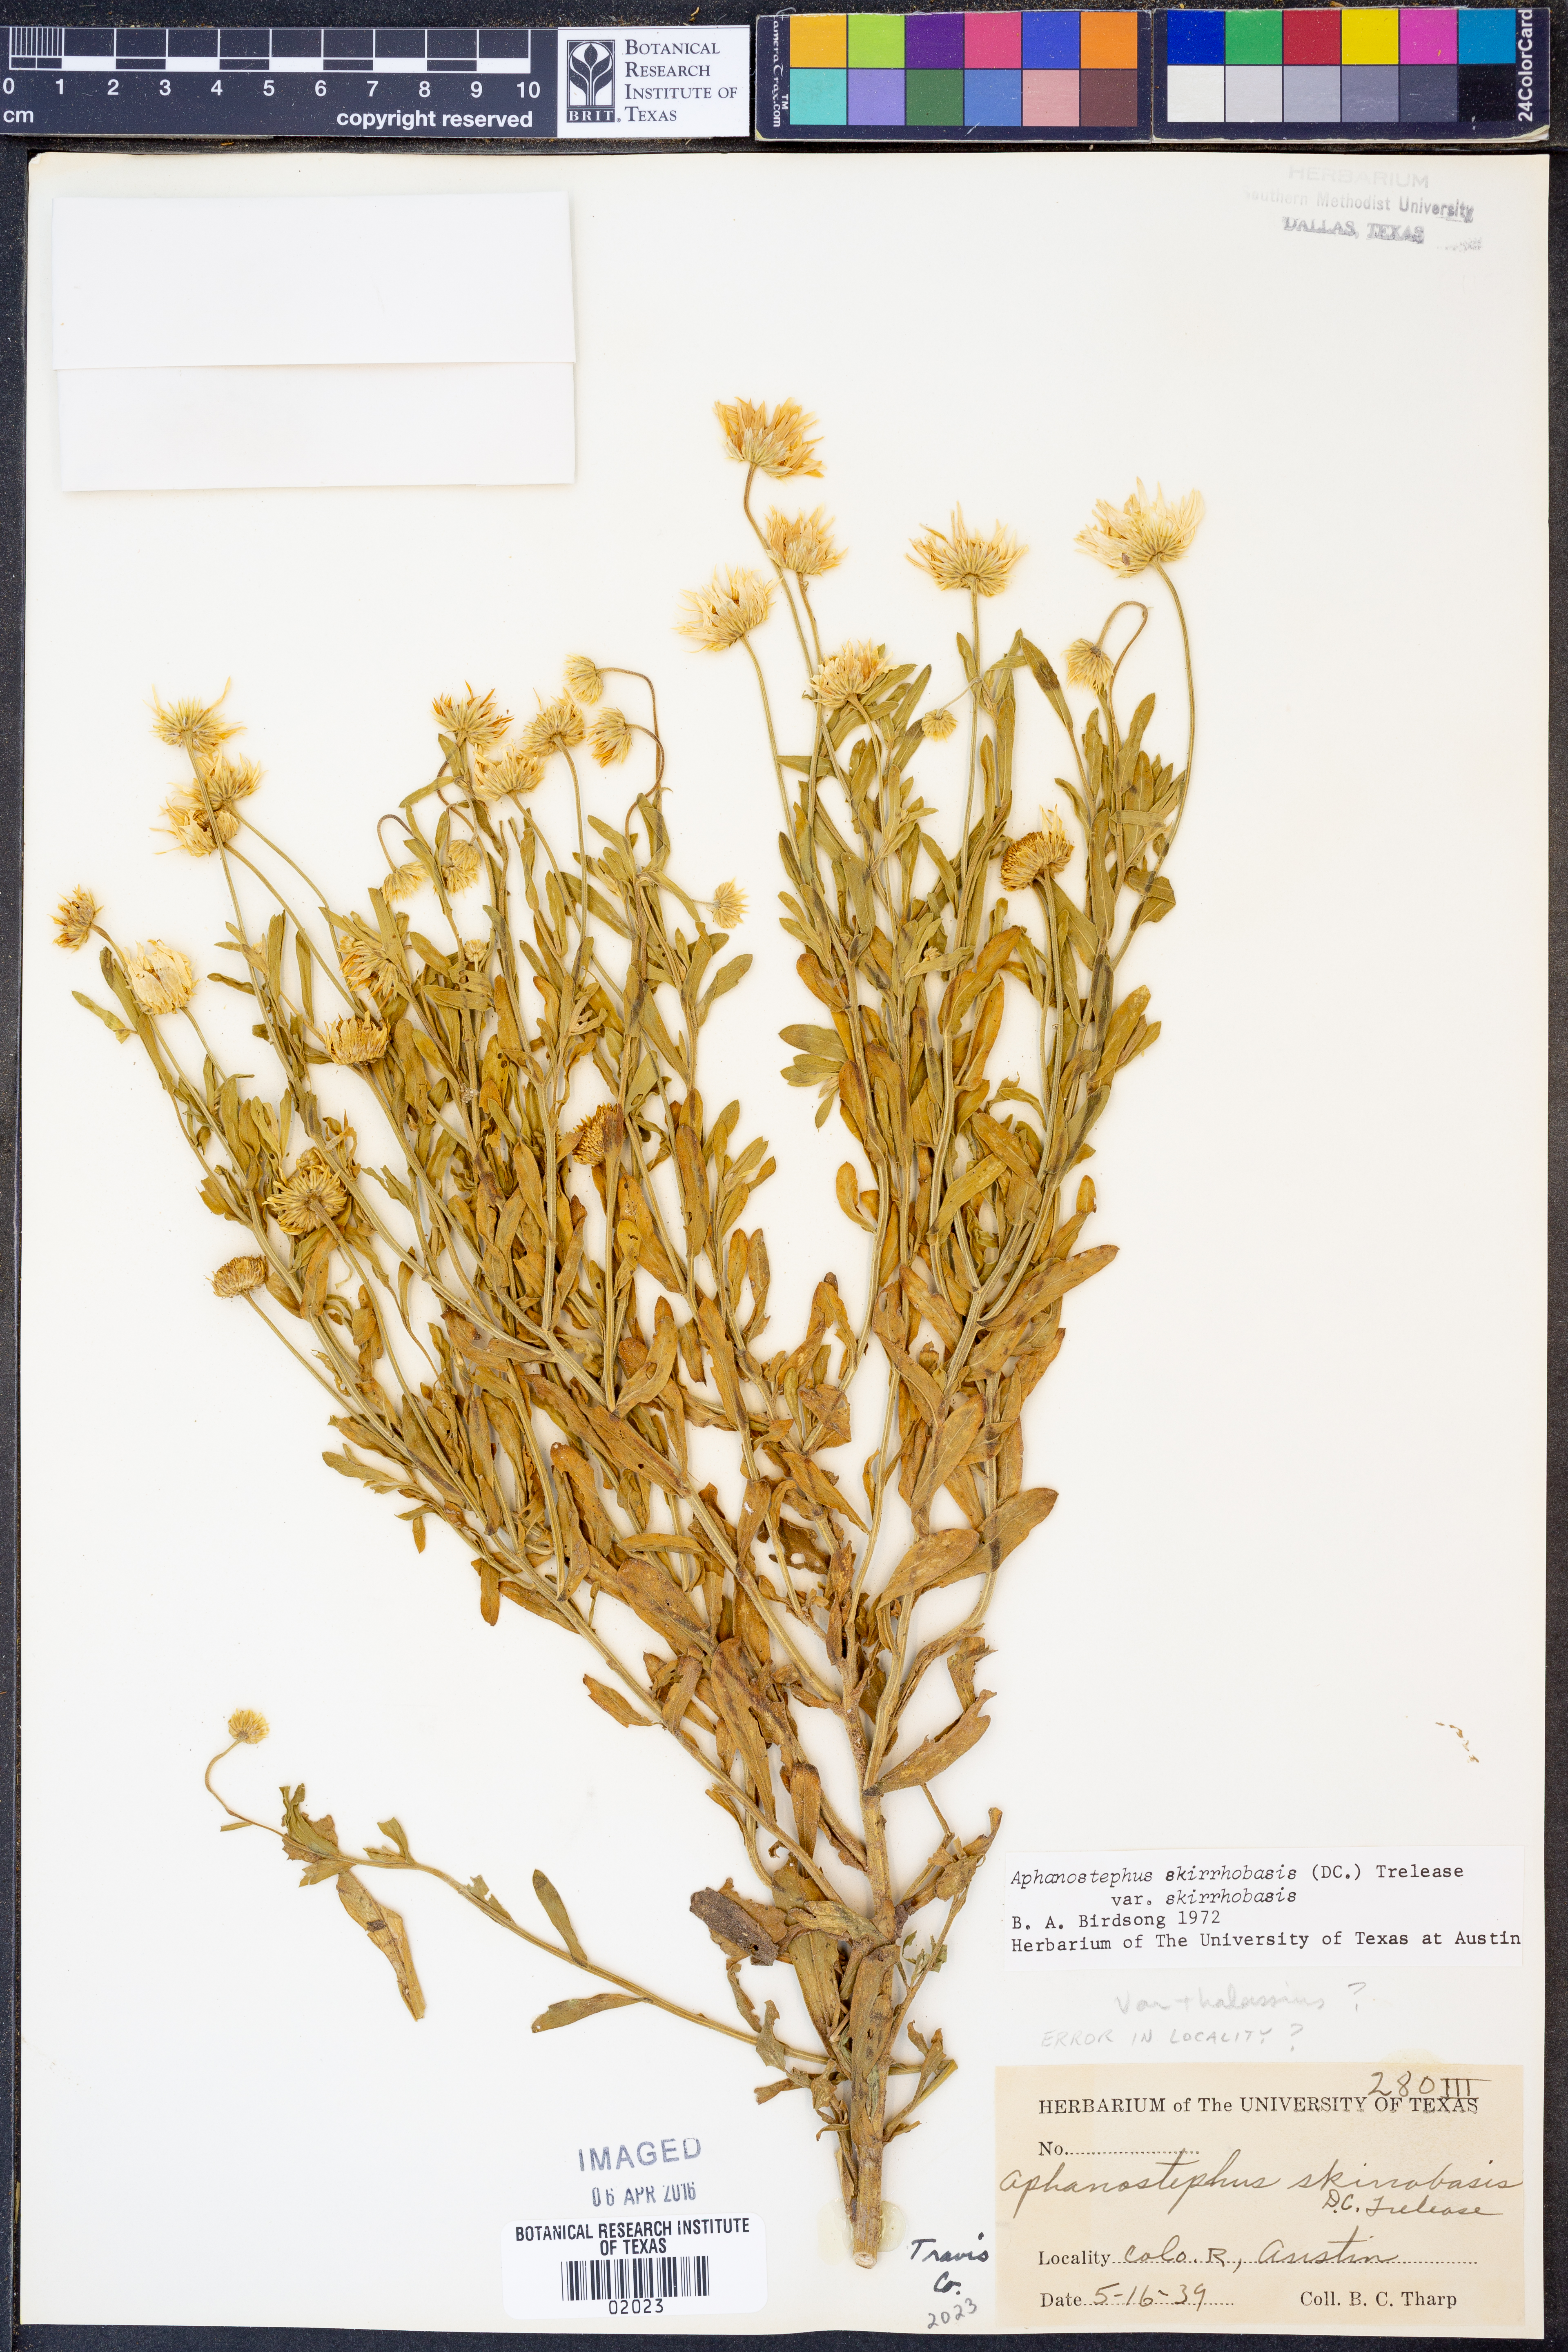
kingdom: Plantae
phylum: Tracheophyta
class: Magnoliopsida
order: Asterales
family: Asteraceae
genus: Aphanostephus
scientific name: Aphanostephus skirrhobasis
